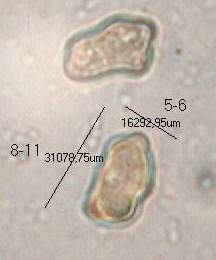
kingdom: Fungi
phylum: Basidiomycota
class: Agaricomycetes
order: Agaricales
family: Inocybaceae
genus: Inocybe
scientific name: Inocybe curvipes
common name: plæne-trævlhat
